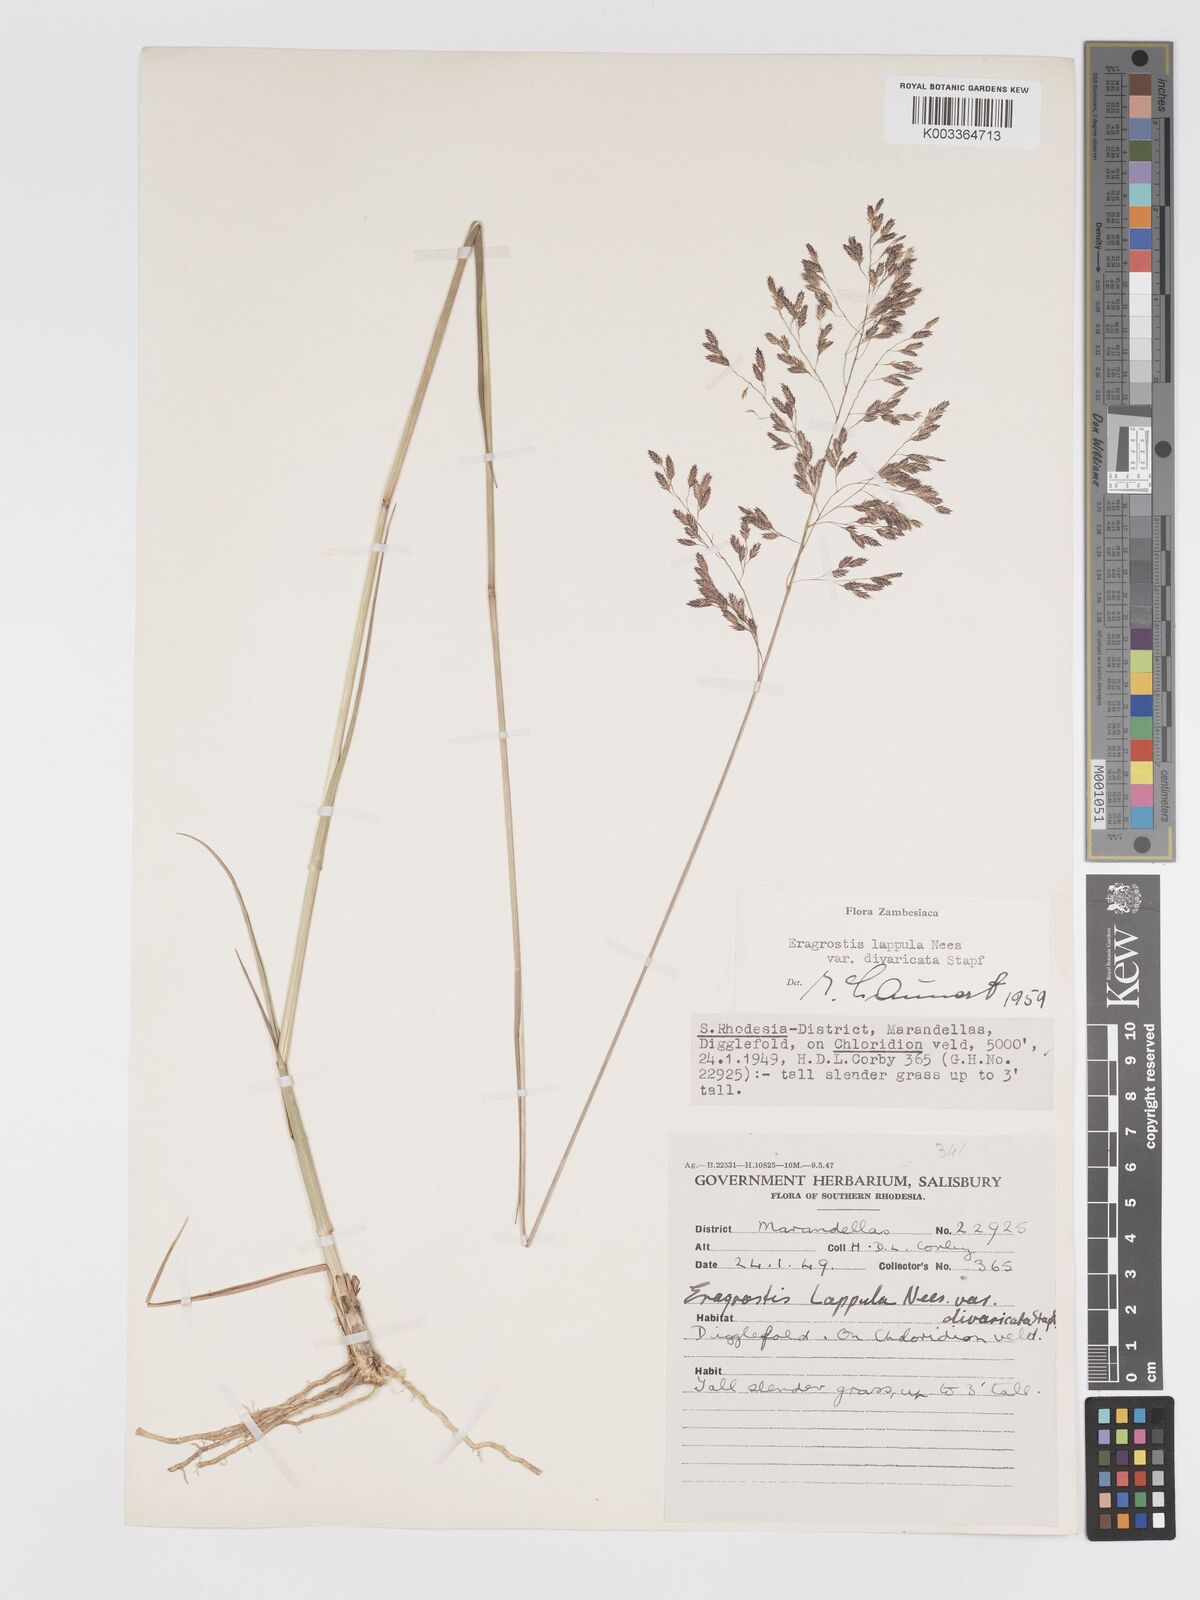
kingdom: Plantae
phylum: Tracheophyta
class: Liliopsida
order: Poales
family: Poaceae
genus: Eragrostis
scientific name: Eragrostis lappula
